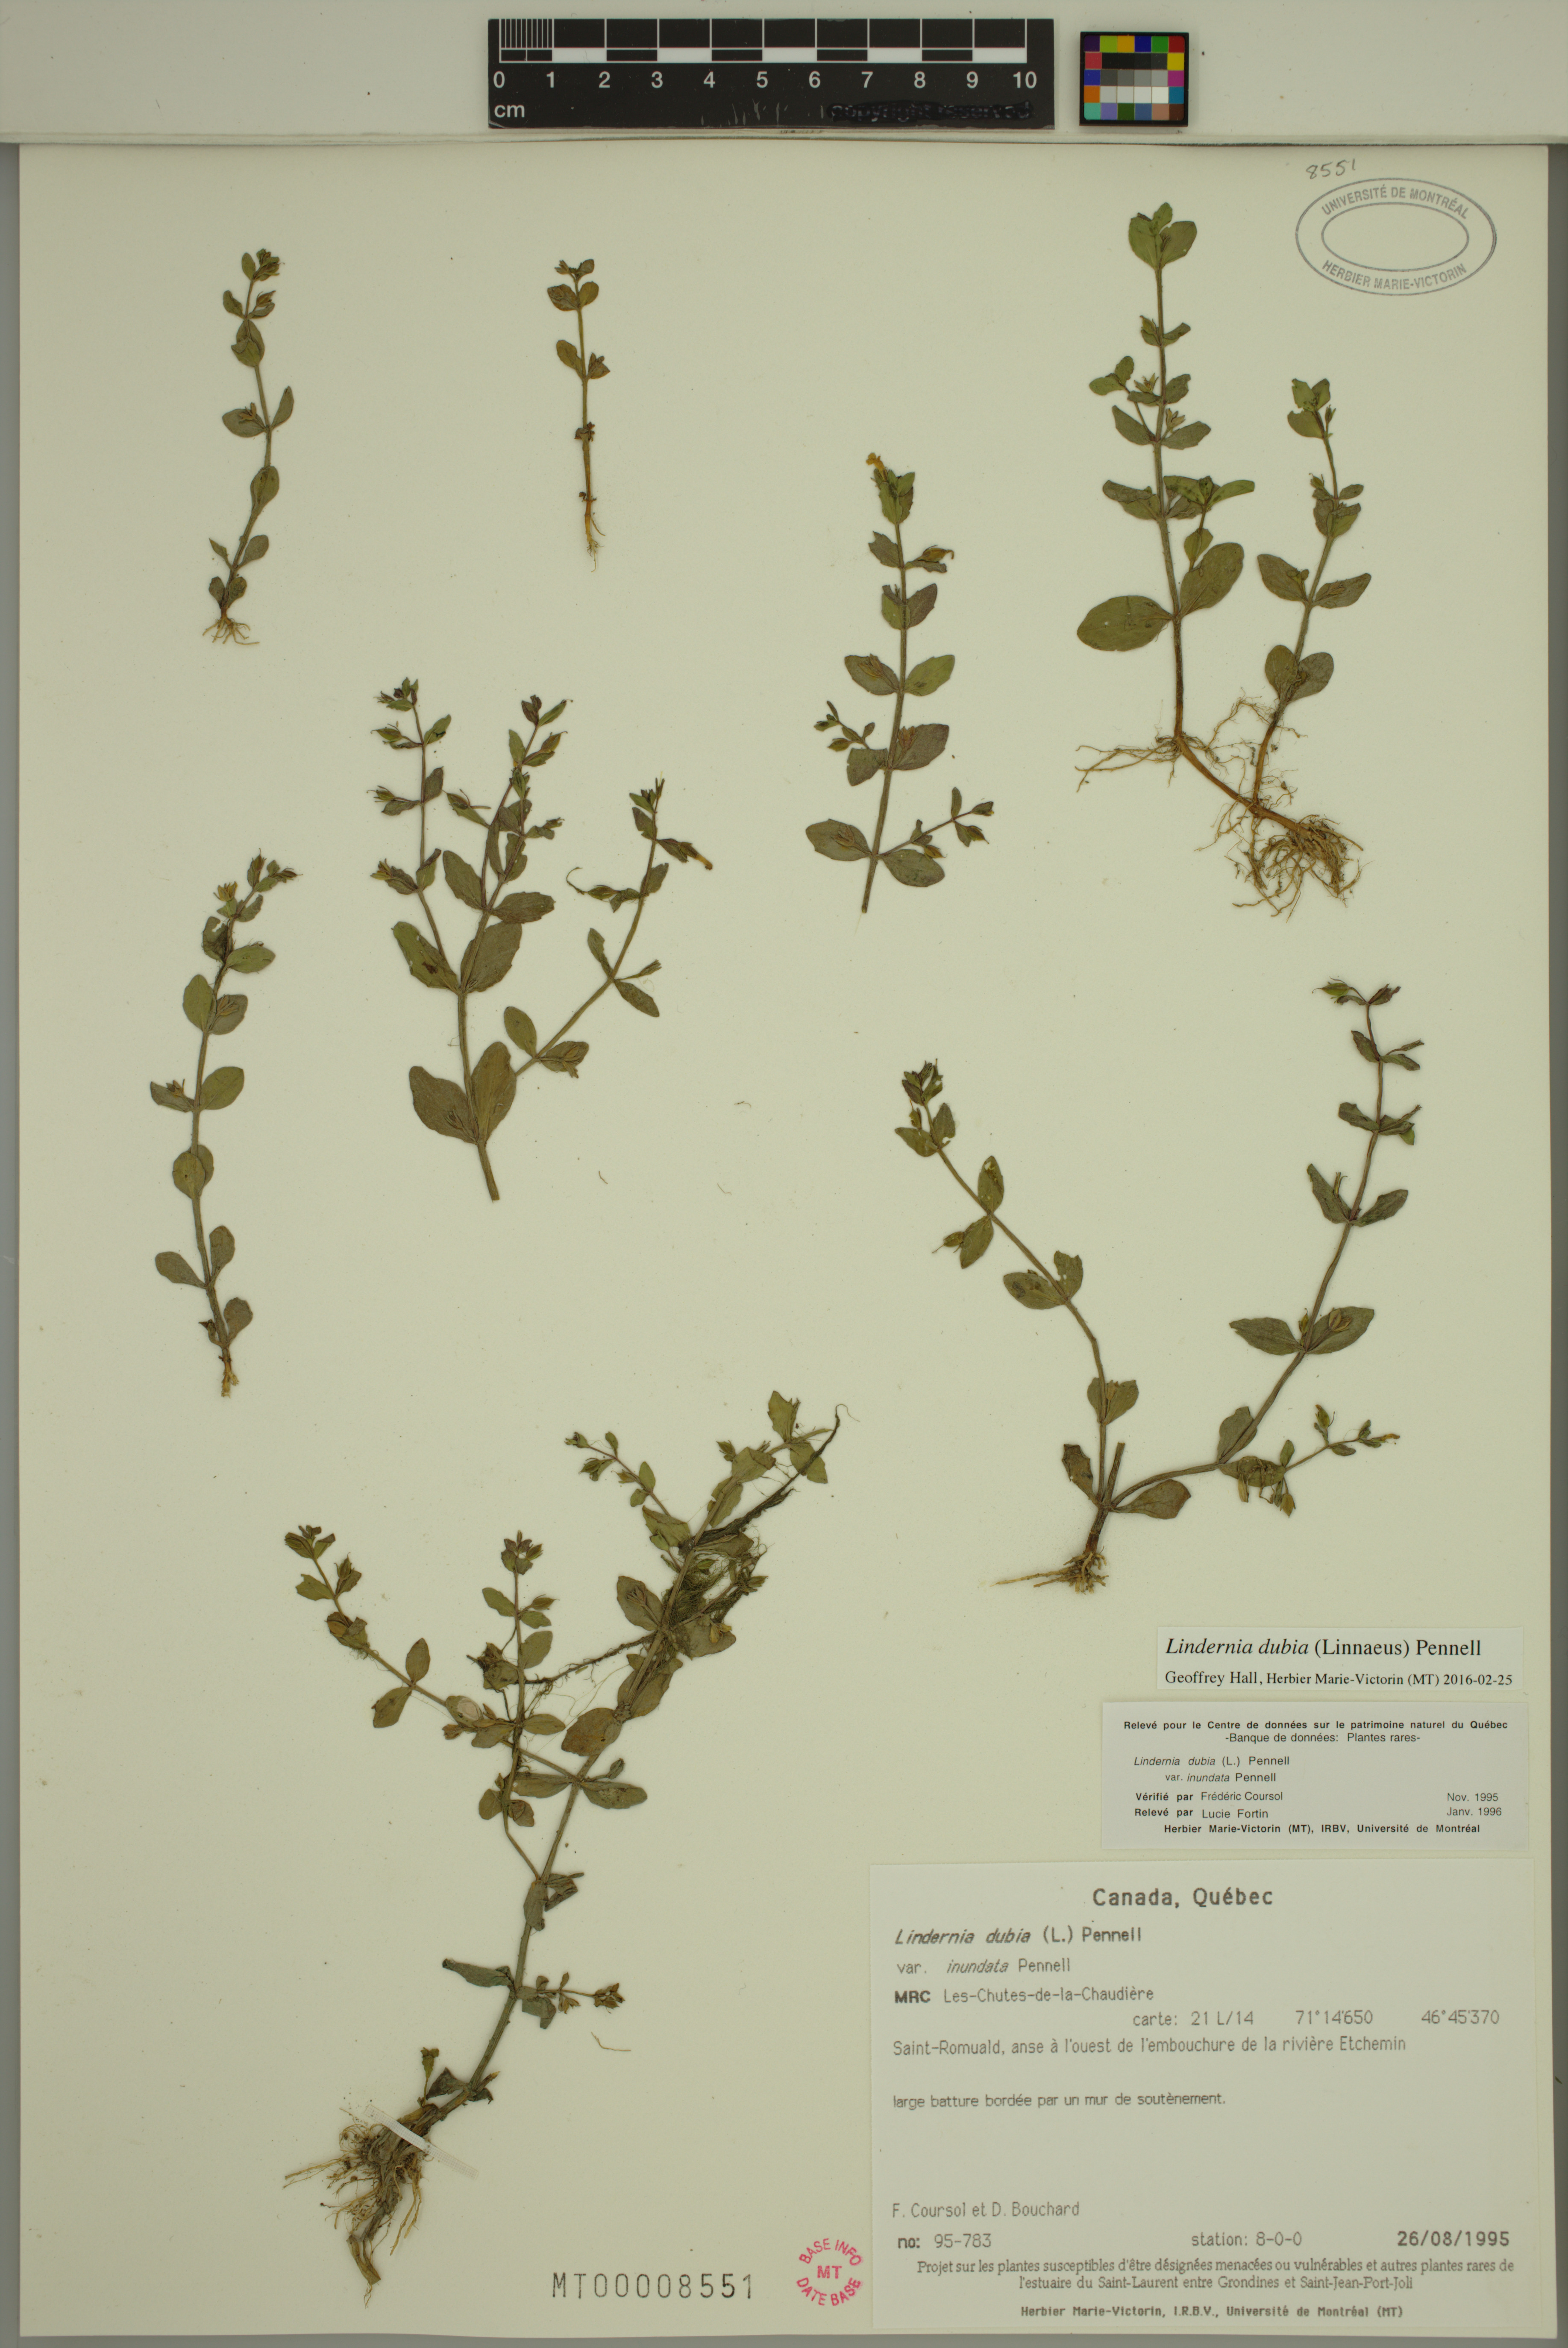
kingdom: Plantae
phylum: Tracheophyta
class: Magnoliopsida
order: Lamiales
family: Linderniaceae
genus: Lindernia
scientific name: Lindernia dubia
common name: Annual false pimpernel
